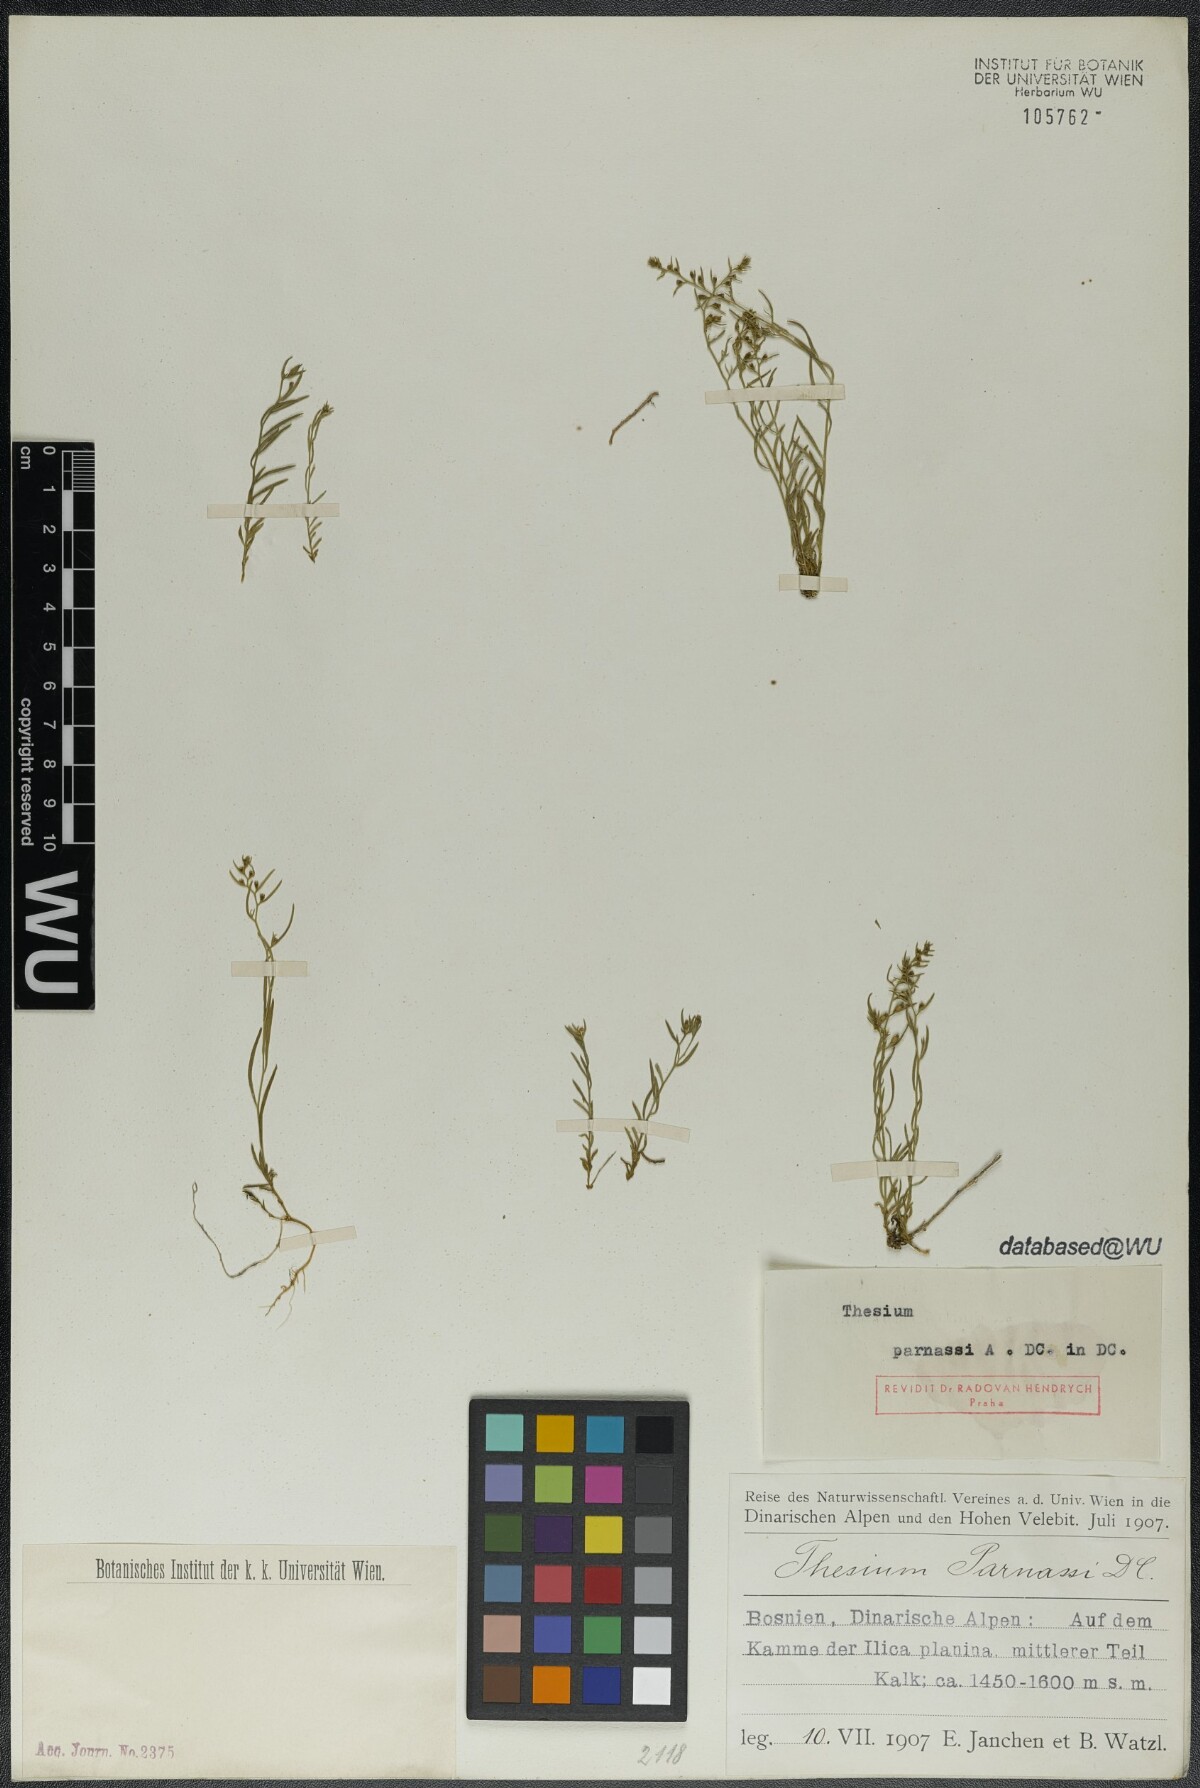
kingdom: Plantae
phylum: Tracheophyta
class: Magnoliopsida
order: Santalales
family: Thesiaceae
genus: Thesium
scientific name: Thesium parnassi
